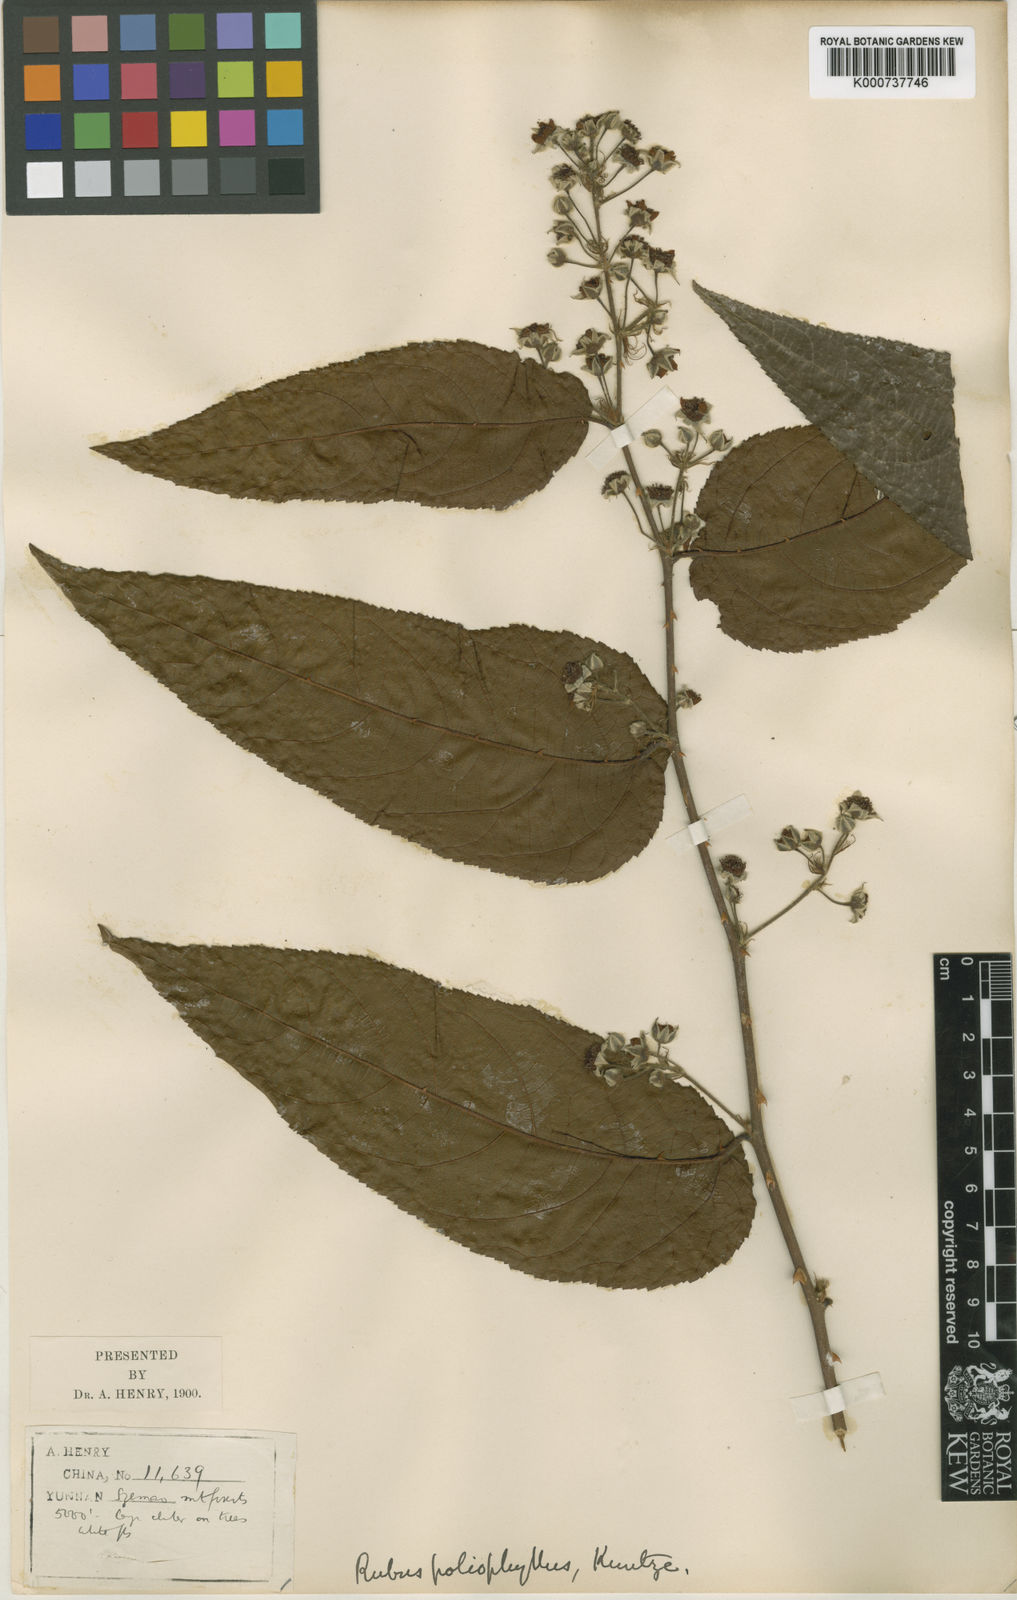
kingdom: Plantae
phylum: Tracheophyta
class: Magnoliopsida
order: Rosales
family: Rosaceae
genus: Rubus
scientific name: Rubus poliophyllus
